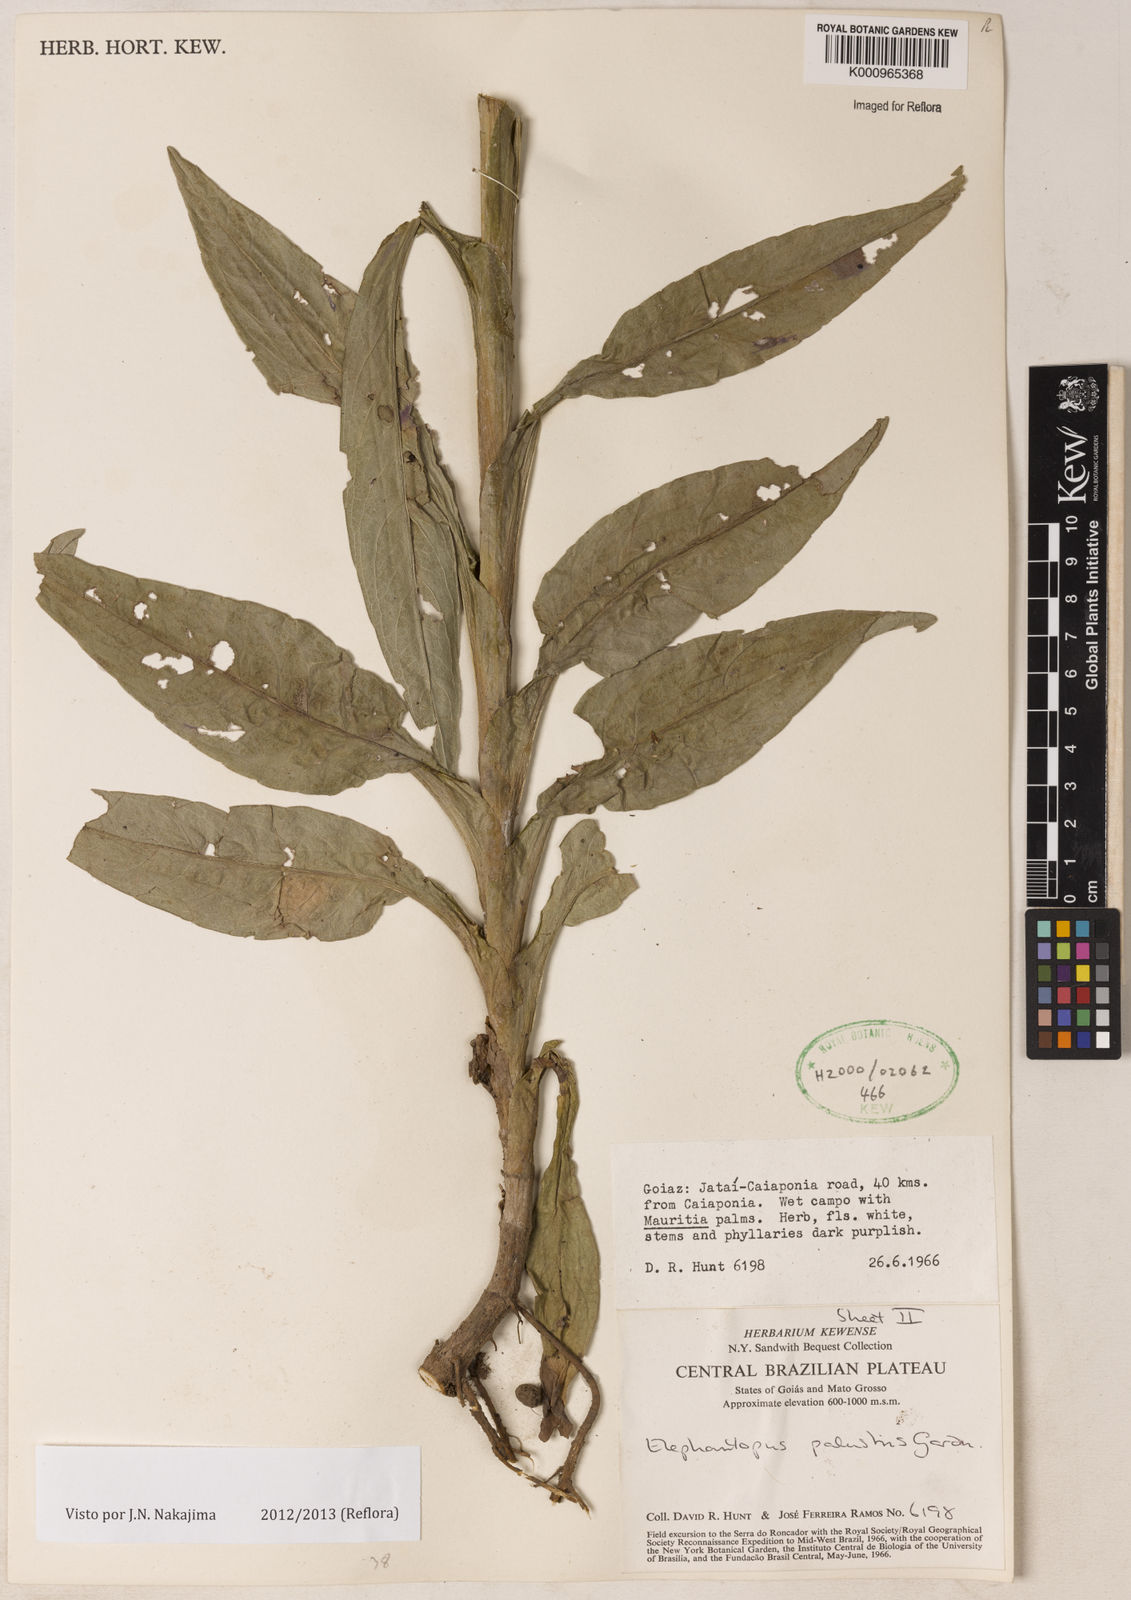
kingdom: Plantae
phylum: Tracheophyta
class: Magnoliopsida
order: Asterales
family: Asteraceae
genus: Elephantopus
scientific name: Elephantopus palustris
